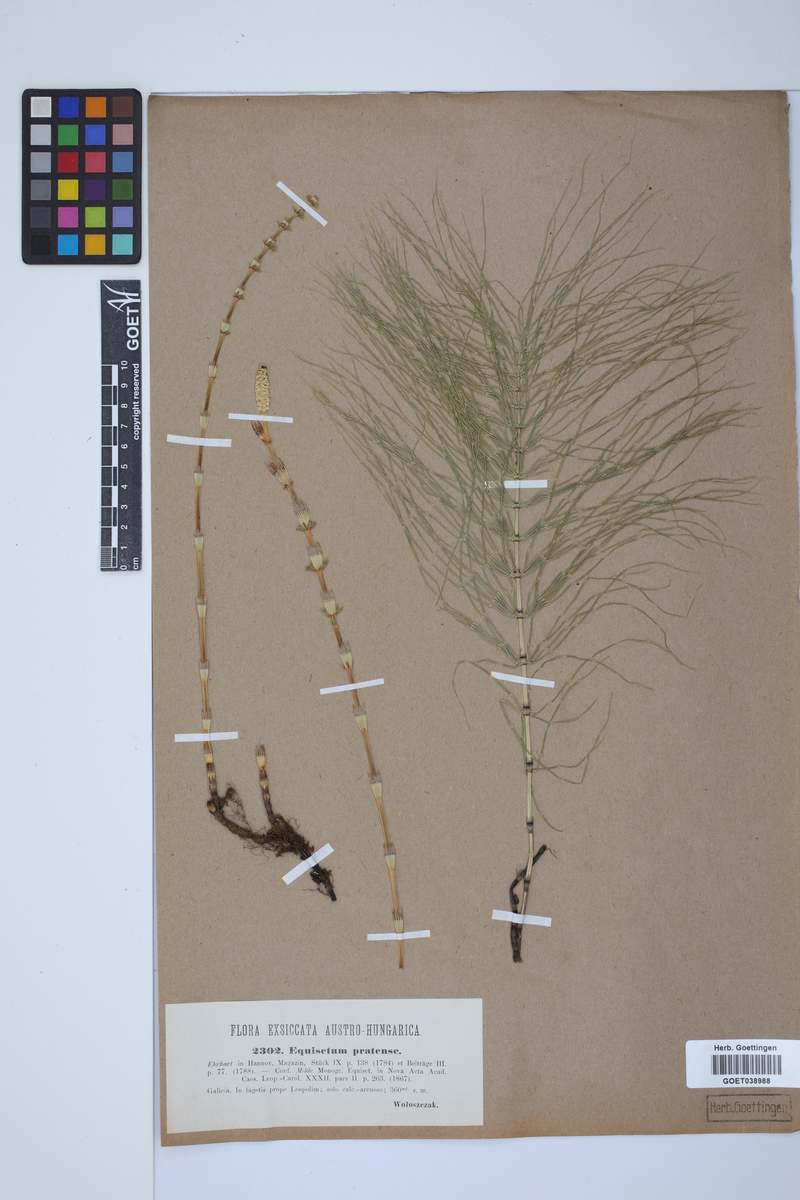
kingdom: Plantae
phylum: Tracheophyta
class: Polypodiopsida
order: Equisetales
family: Equisetaceae
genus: Equisetum
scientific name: Equisetum pratense
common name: Meadow horsetail
